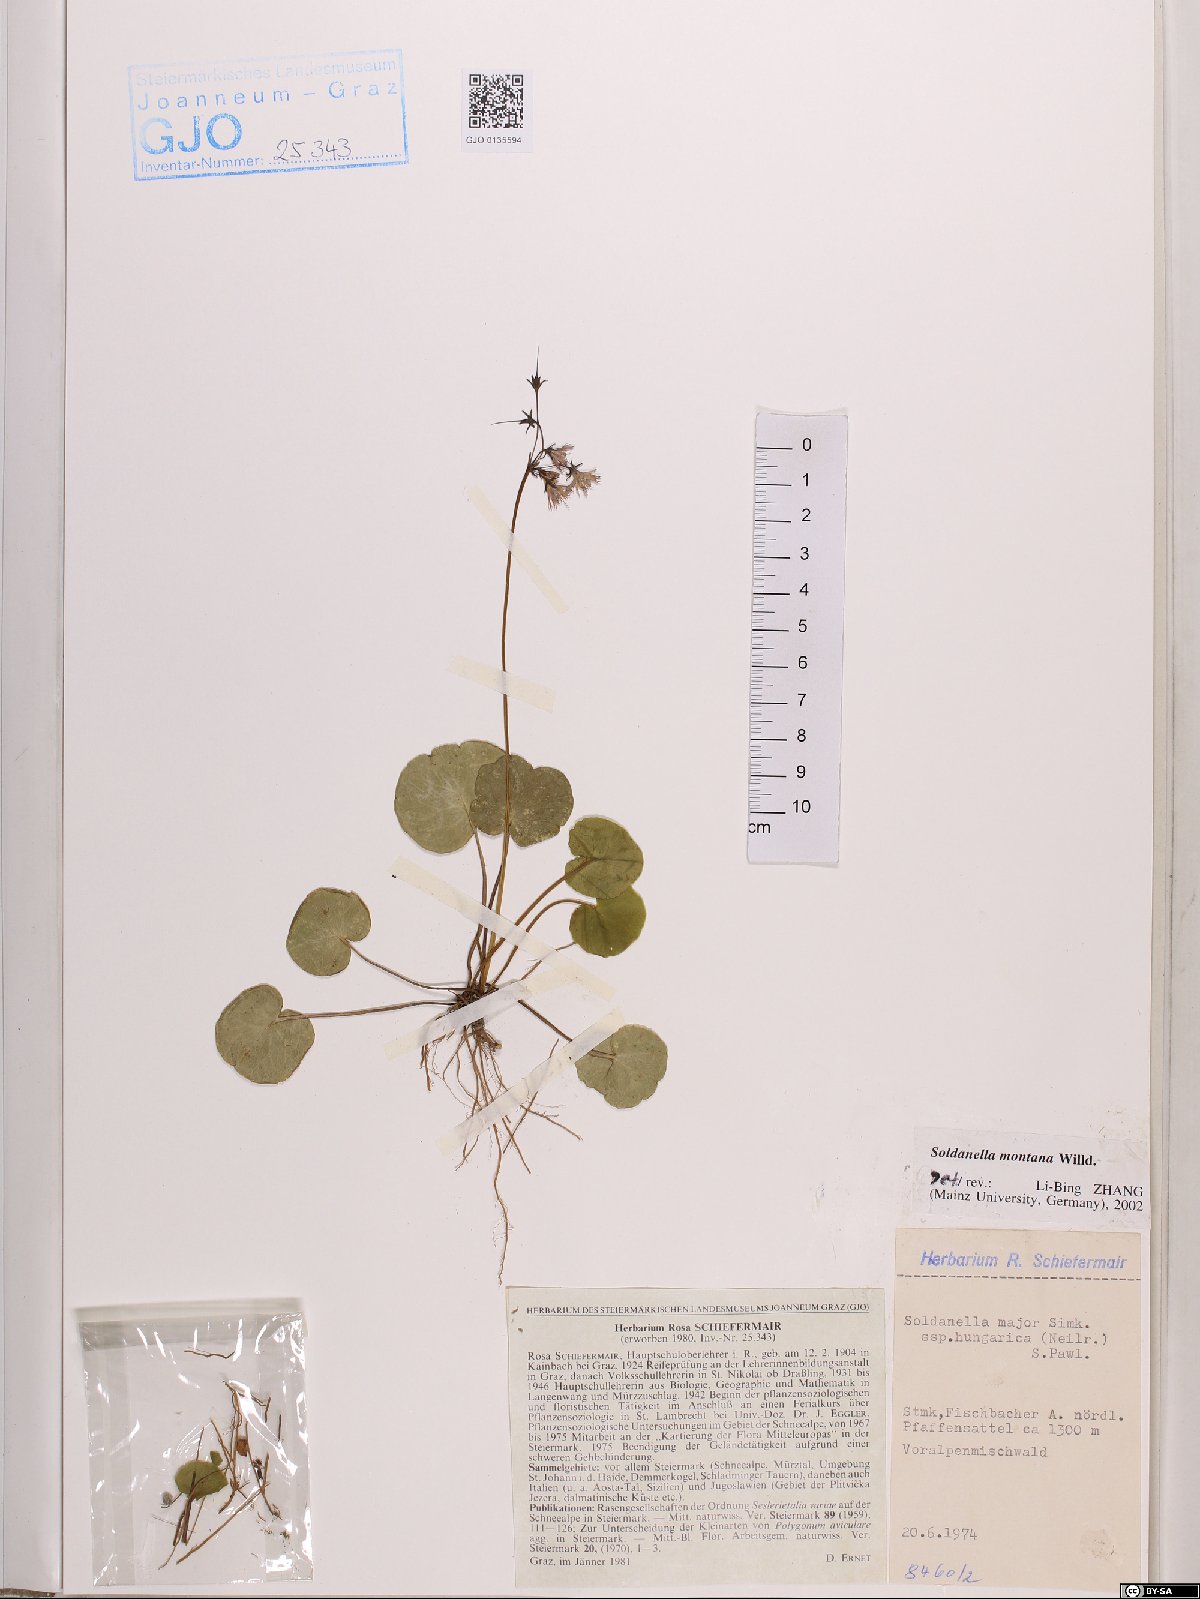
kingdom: Plantae
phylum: Tracheophyta
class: Magnoliopsida
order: Ericales
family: Primulaceae
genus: Soldanella
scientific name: Soldanella montana
